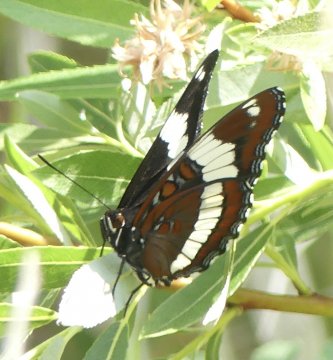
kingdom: Animalia
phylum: Arthropoda
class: Insecta
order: Lepidoptera
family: Nymphalidae
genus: Limenitis
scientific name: Limenitis arthemis
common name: Red-spotted Admiral
